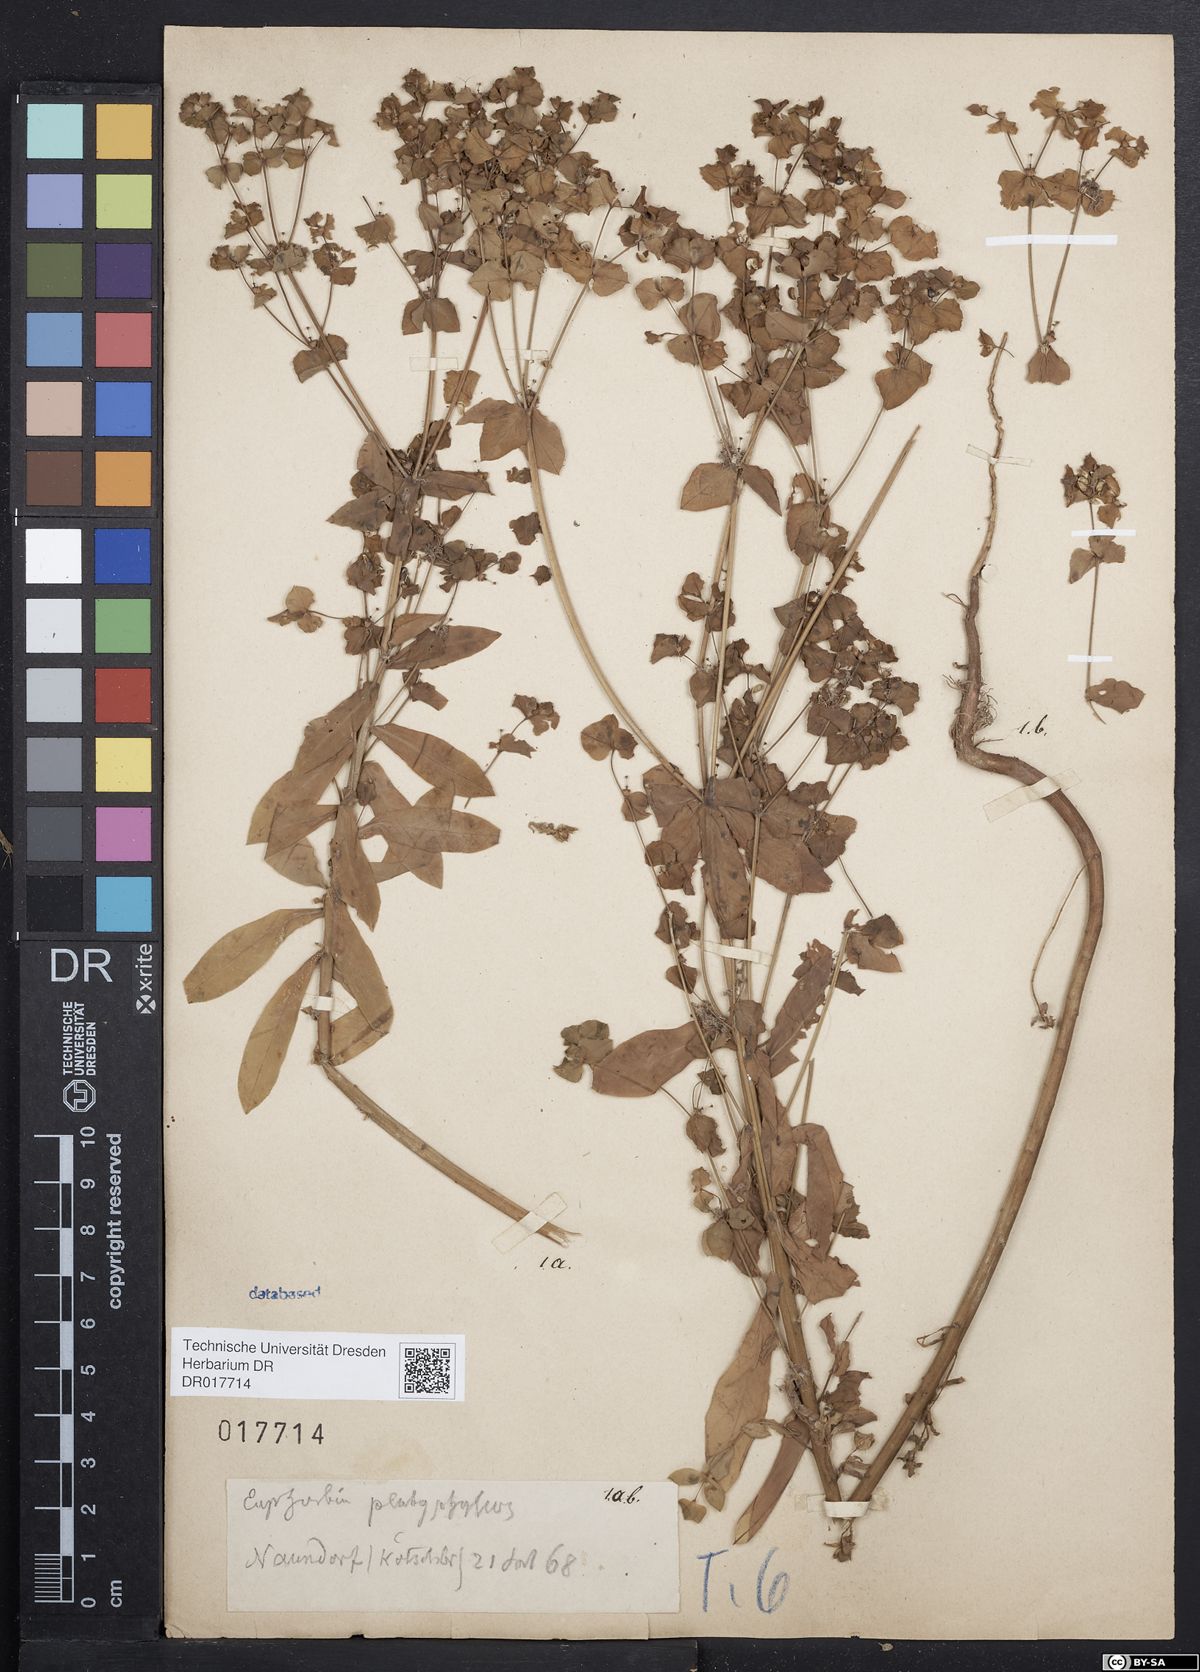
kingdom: Plantae
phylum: Tracheophyta
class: Magnoliopsida
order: Malpighiales
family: Euphorbiaceae
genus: Euphorbia
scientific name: Euphorbia platyphyllos
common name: Broad-leaved spurge
